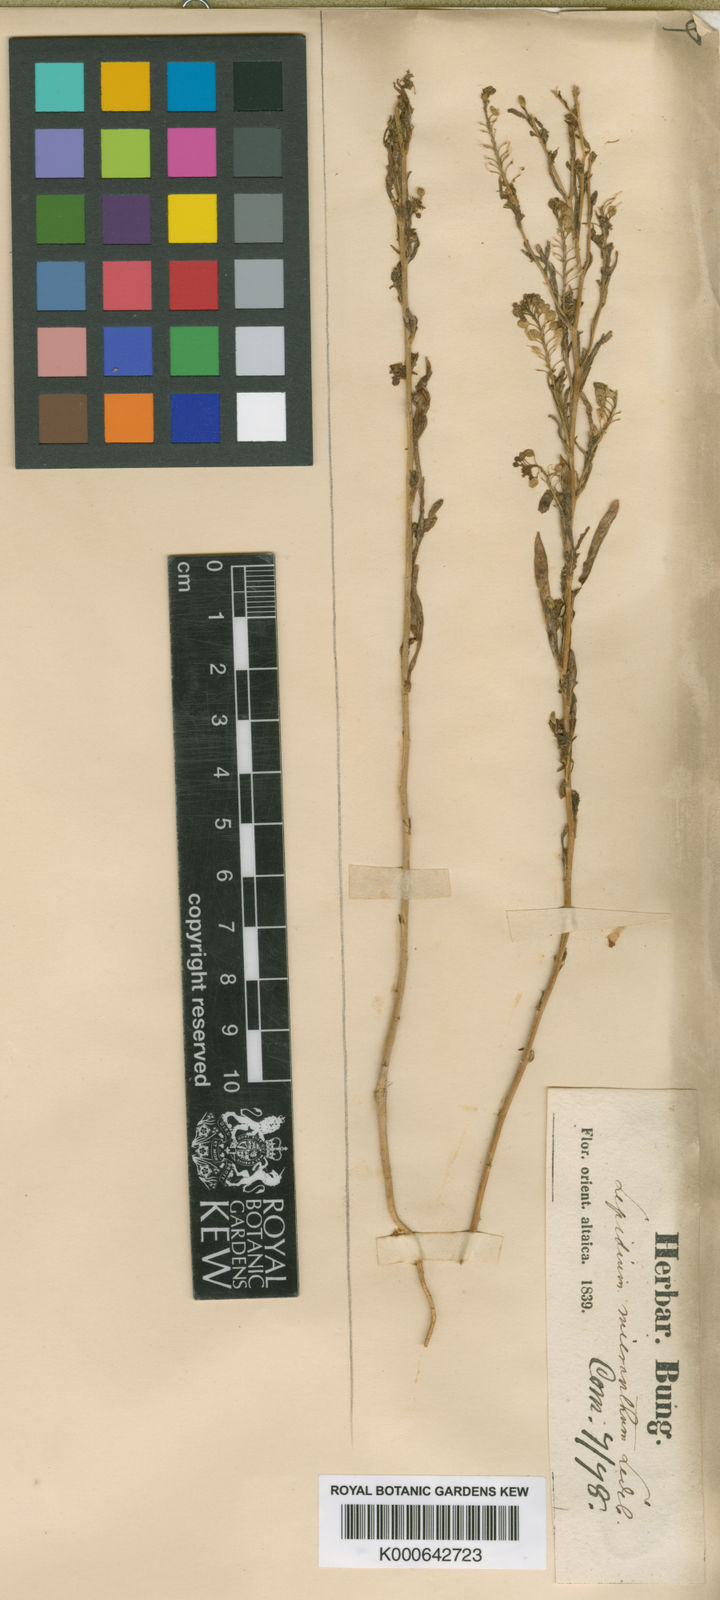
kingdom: Plantae
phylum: Tracheophyta
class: Magnoliopsida
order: Brassicales
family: Brassicaceae
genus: Lepidium
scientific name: Lepidium apetalum
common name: Pepperweed
